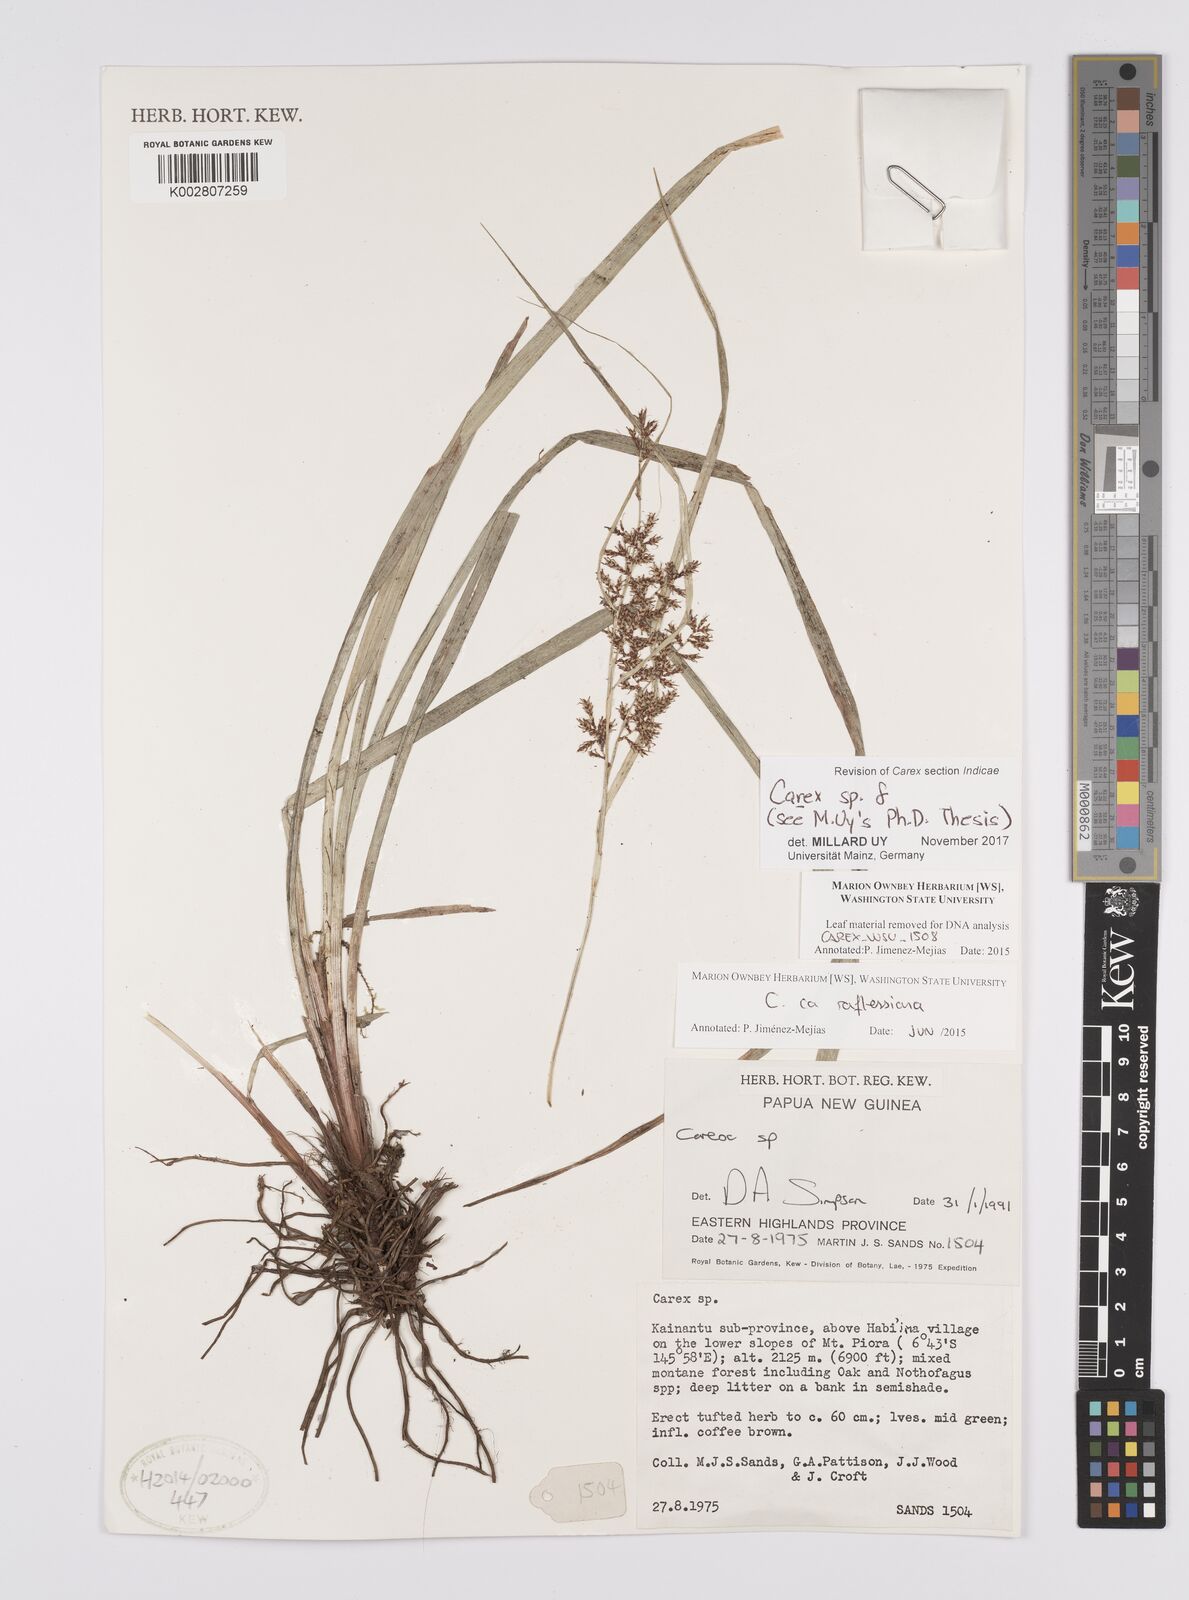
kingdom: Plantae
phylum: Tracheophyta
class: Liliopsida
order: Poales
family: Cyperaceae
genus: Carex
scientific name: Carex
